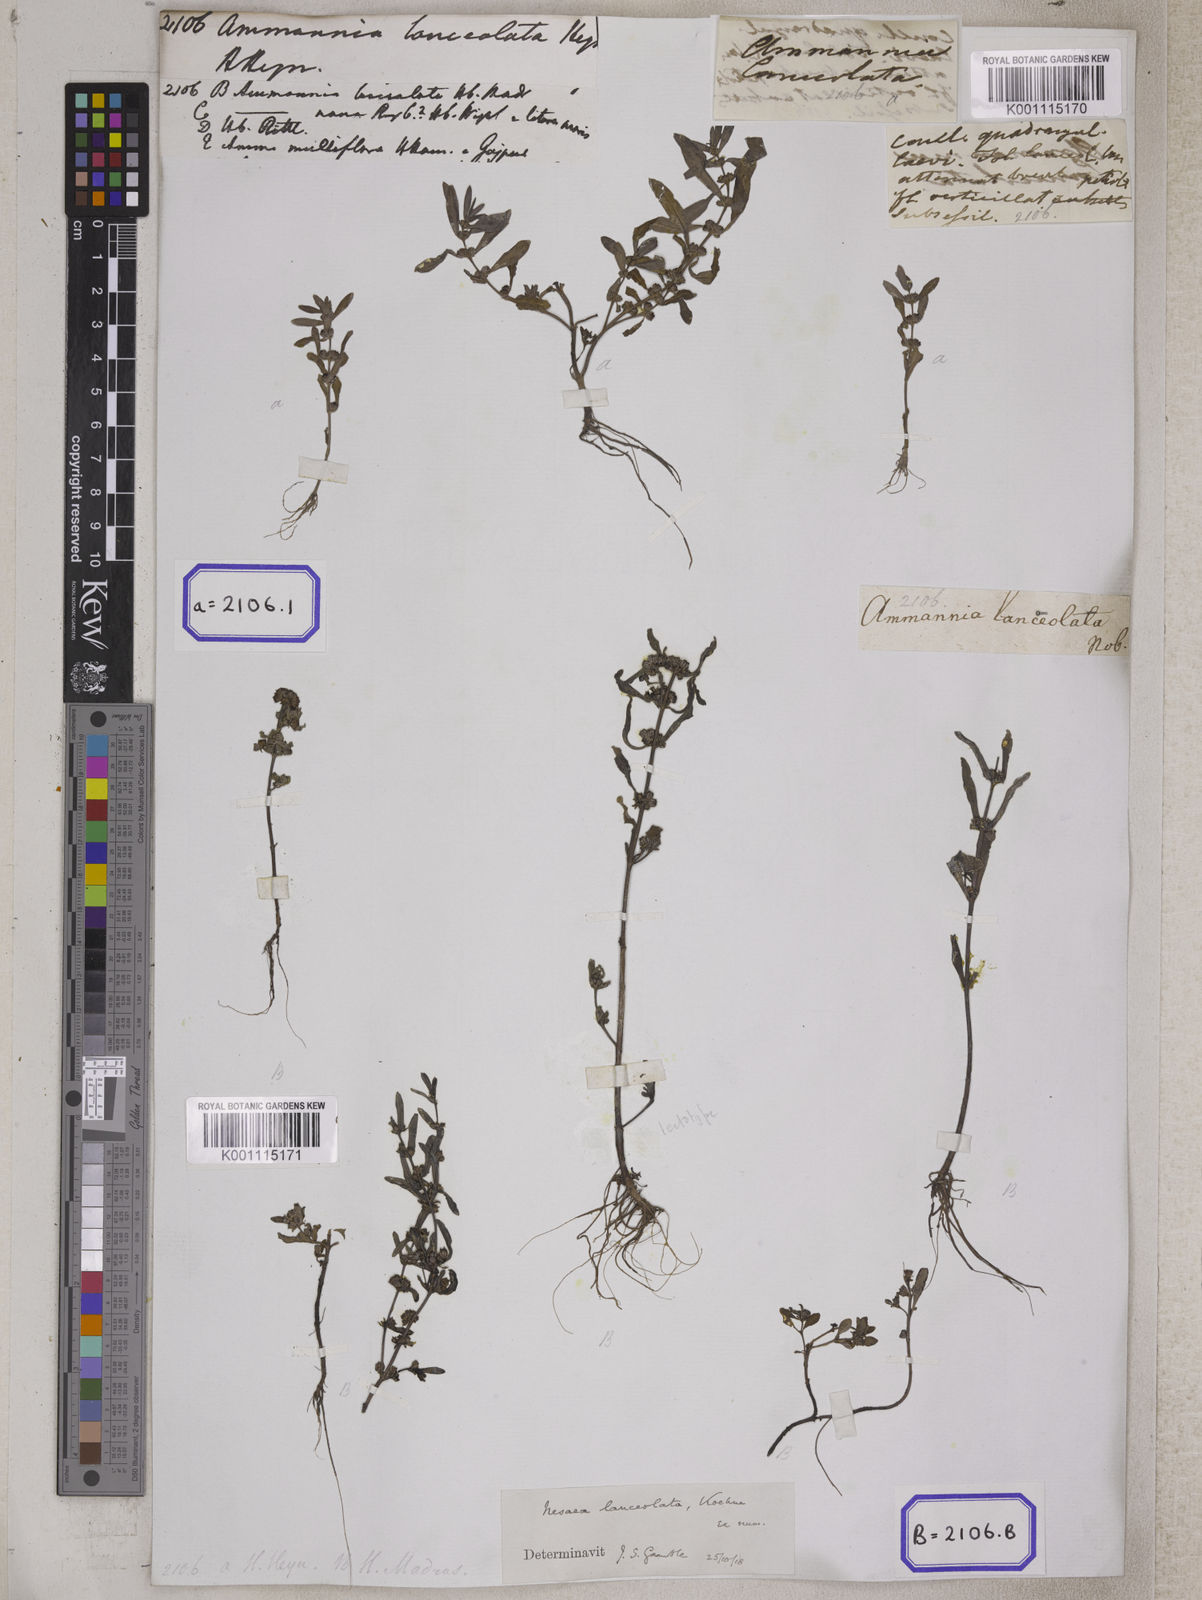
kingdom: Plantae
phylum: Tracheophyta
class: Magnoliopsida
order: Myrtales
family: Lythraceae
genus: Ammannia
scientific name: Ammannia
